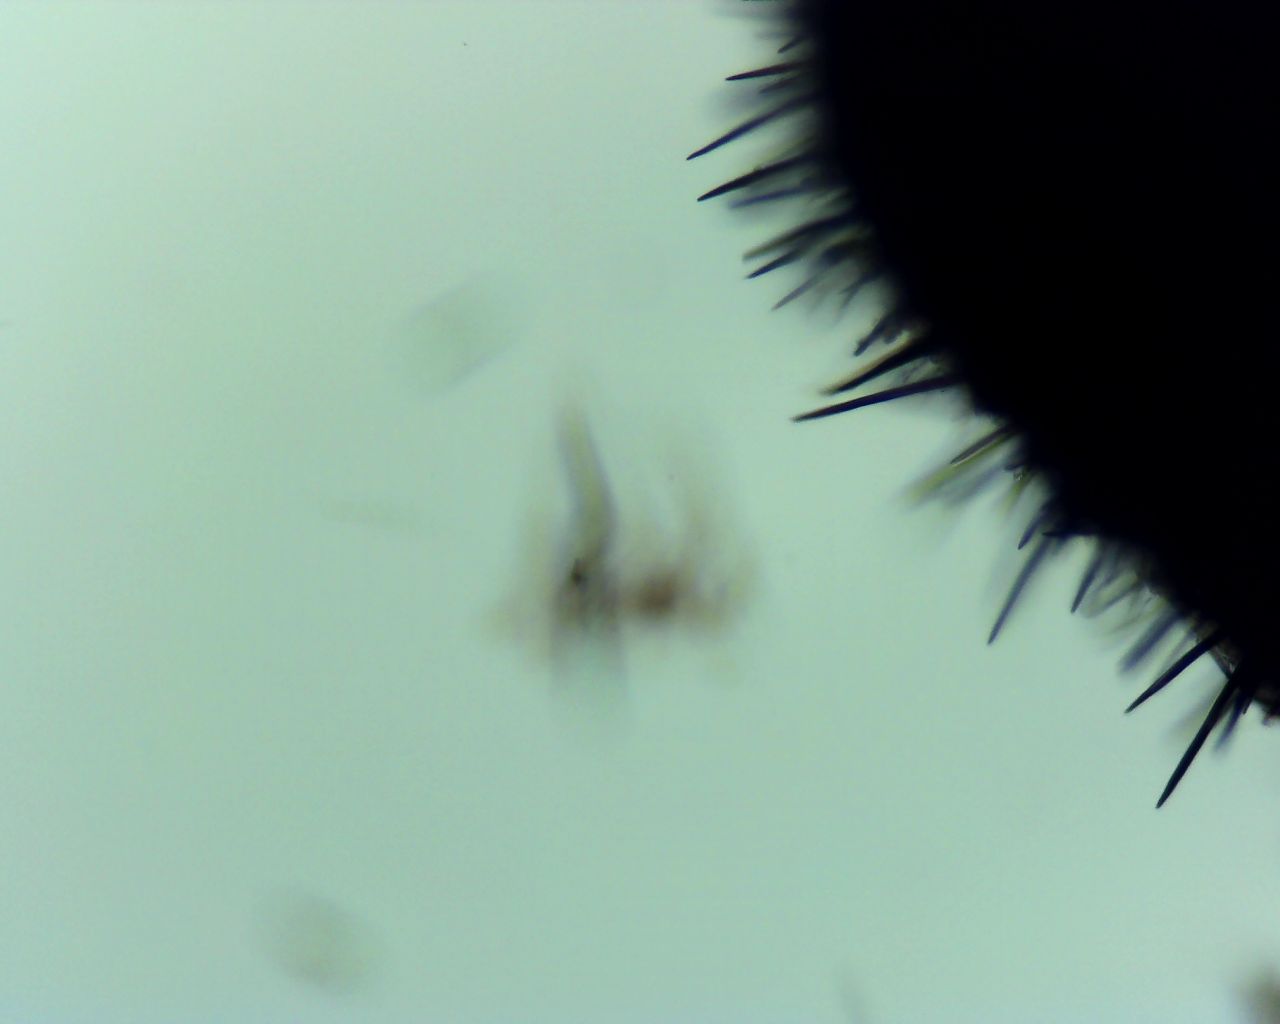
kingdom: Fungi
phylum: Ascomycota
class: Geoglossomycetes
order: Geoglossales
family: Geoglossaceae
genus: Trichoglossum
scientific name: Trichoglossum hirsutum
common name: håret jordtunge
